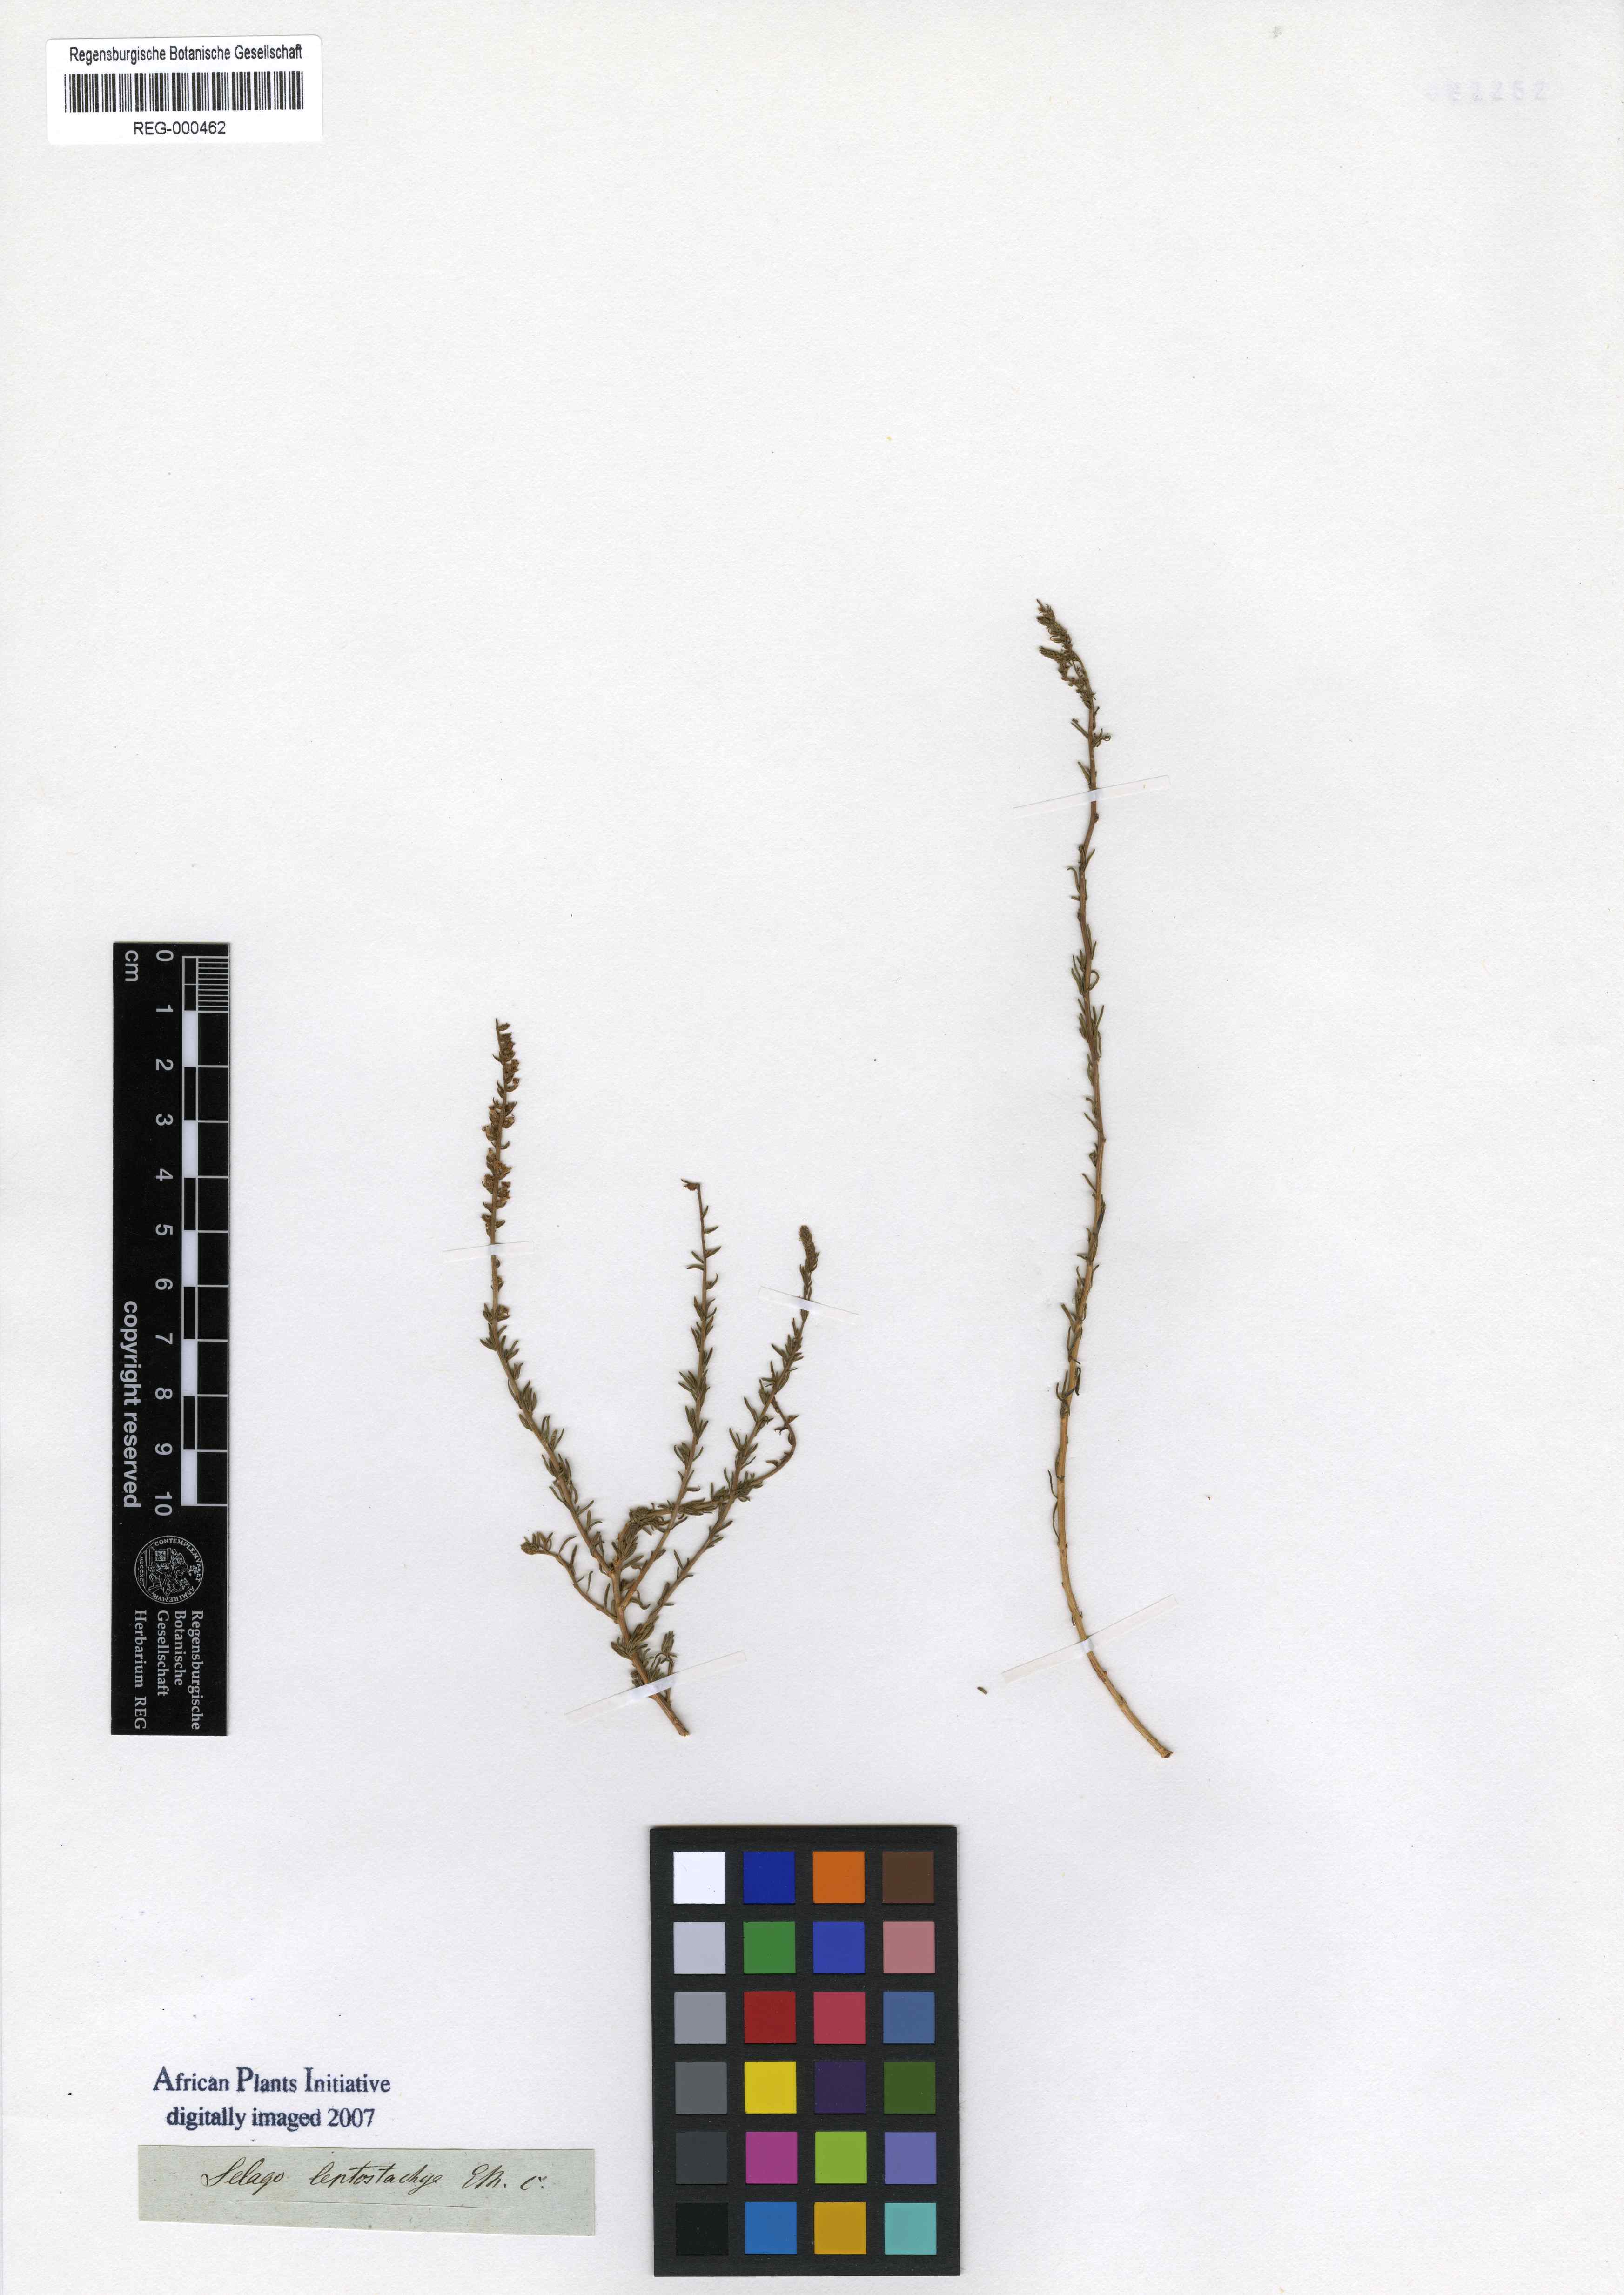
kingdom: Plantae
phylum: Tracheophyta
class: Magnoliopsida
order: Lamiales
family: Scrophulariaceae
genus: Selago
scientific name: Selago geniculata
